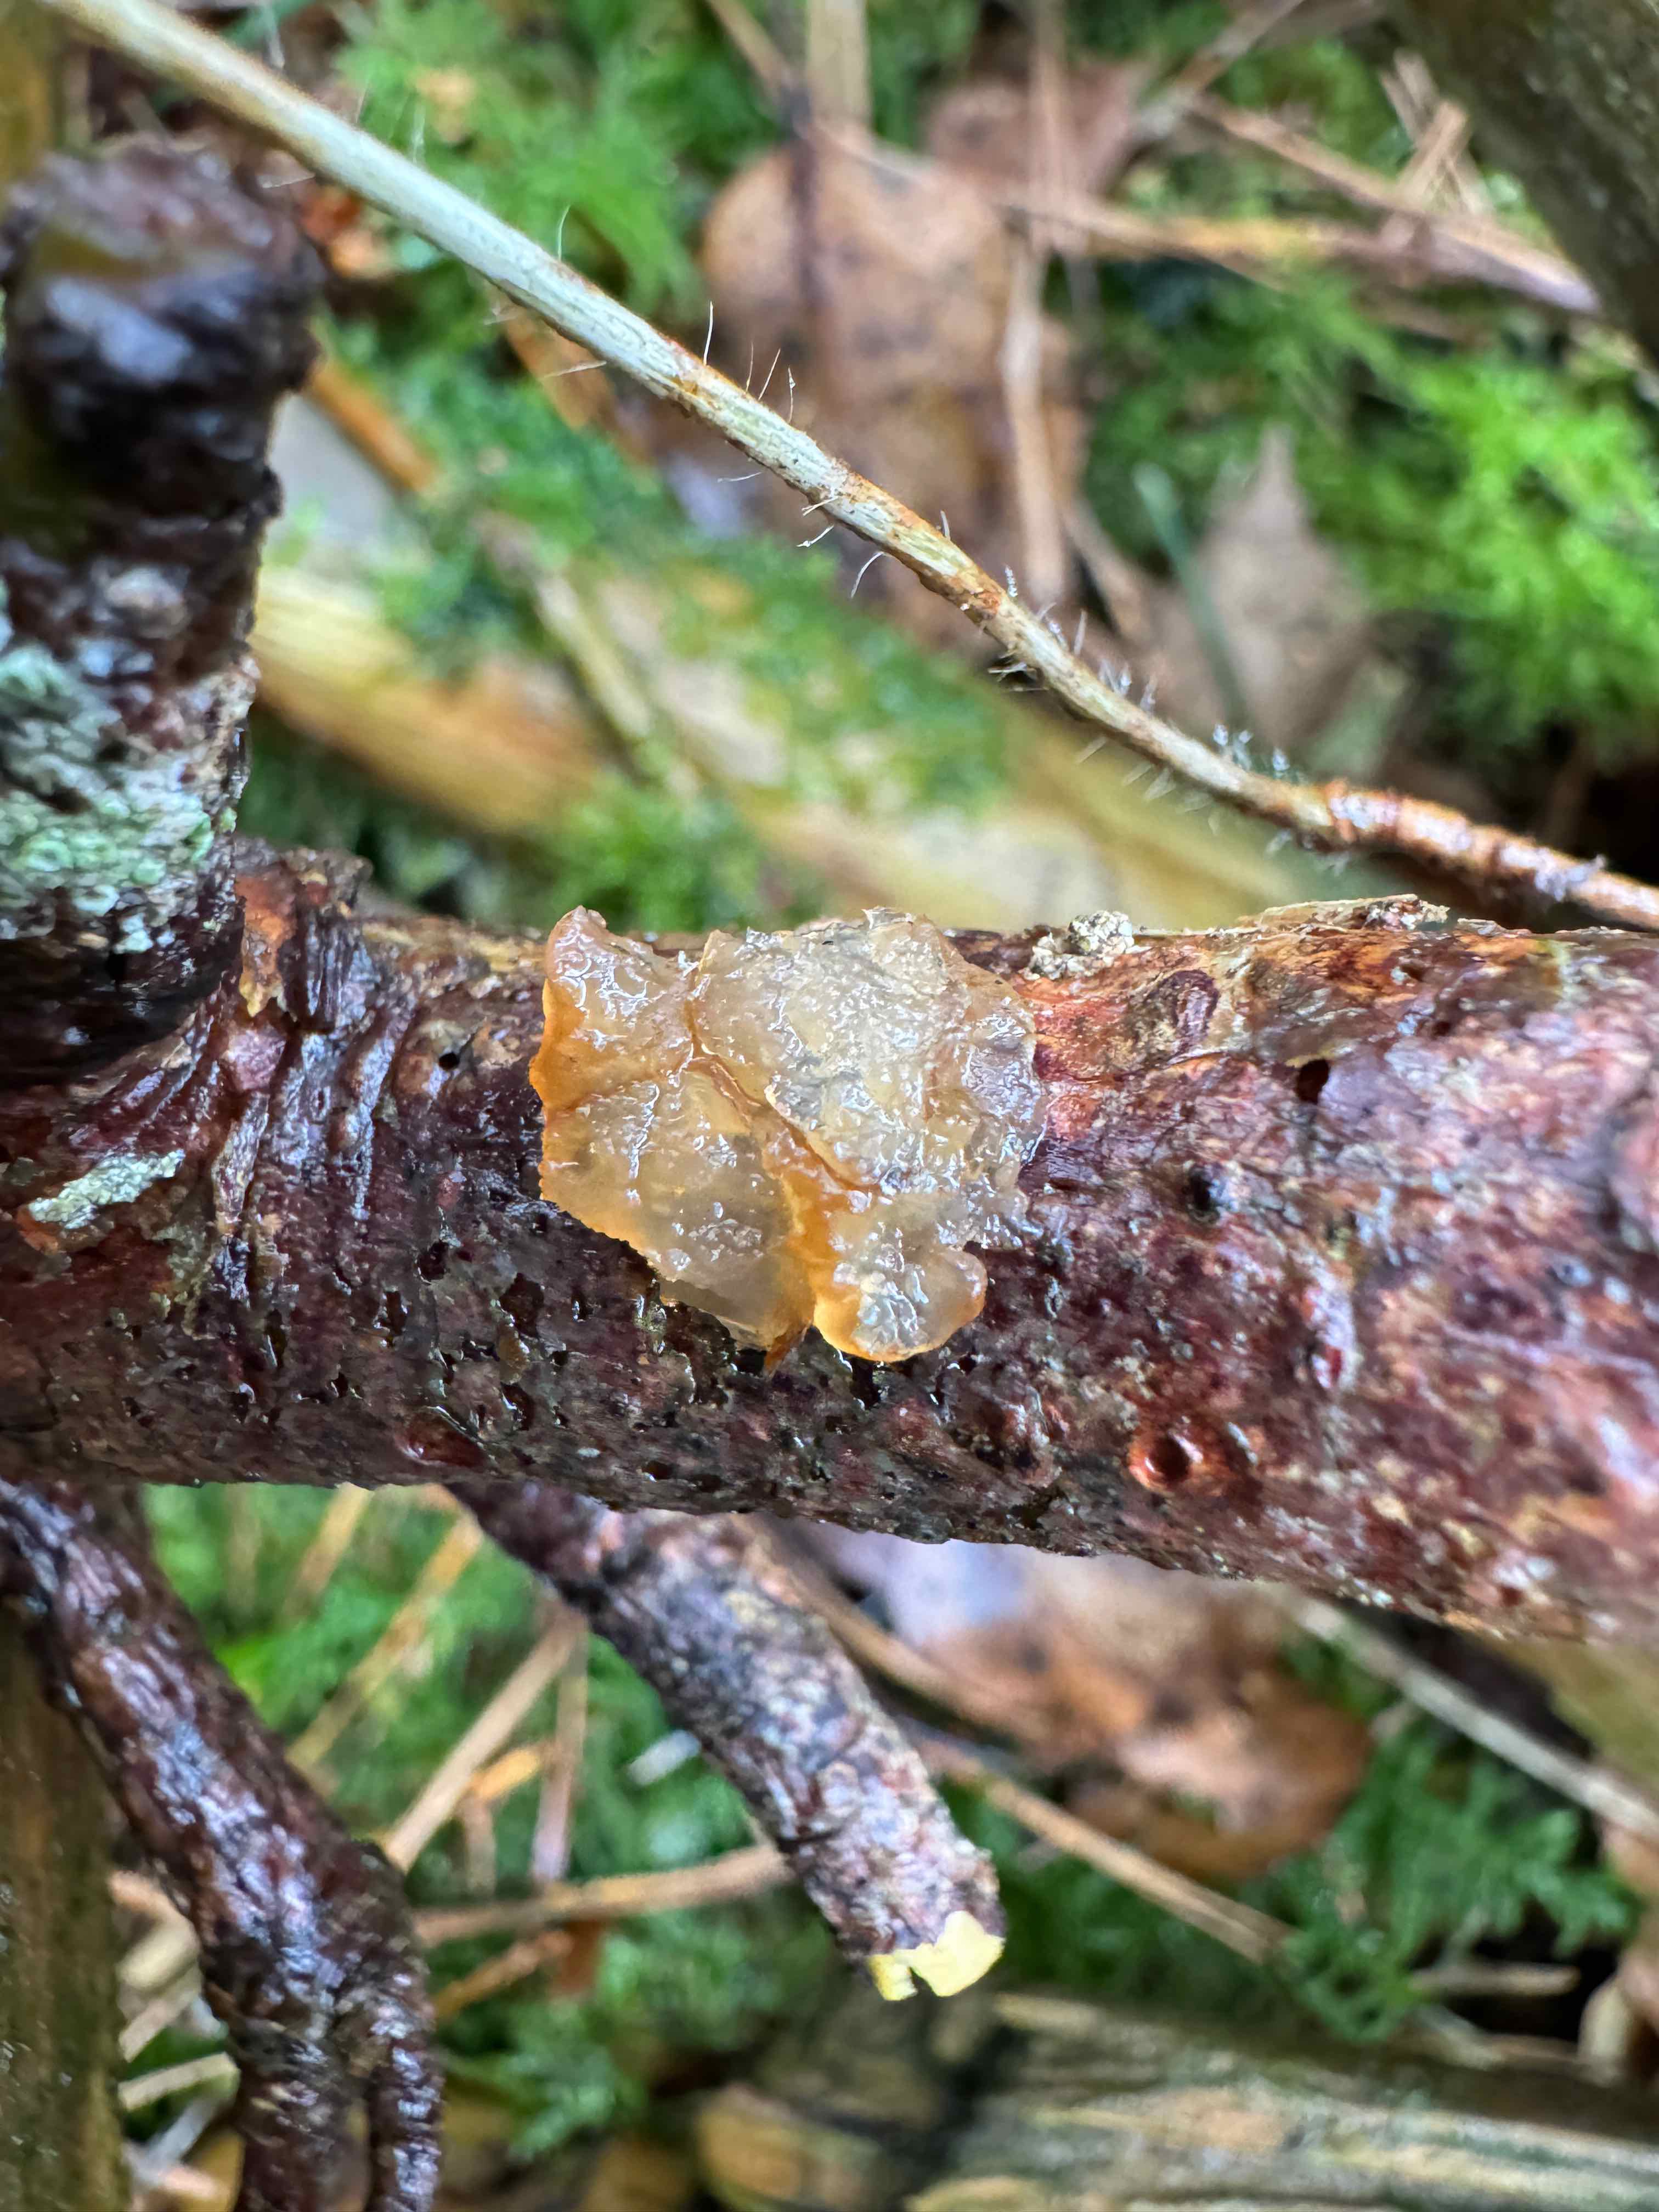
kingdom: Fungi
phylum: Basidiomycota
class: Agaricomycetes
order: Auriculariales
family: Auriculariaceae
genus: Exidia
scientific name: Exidia saccharina
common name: kandis-bævretop
